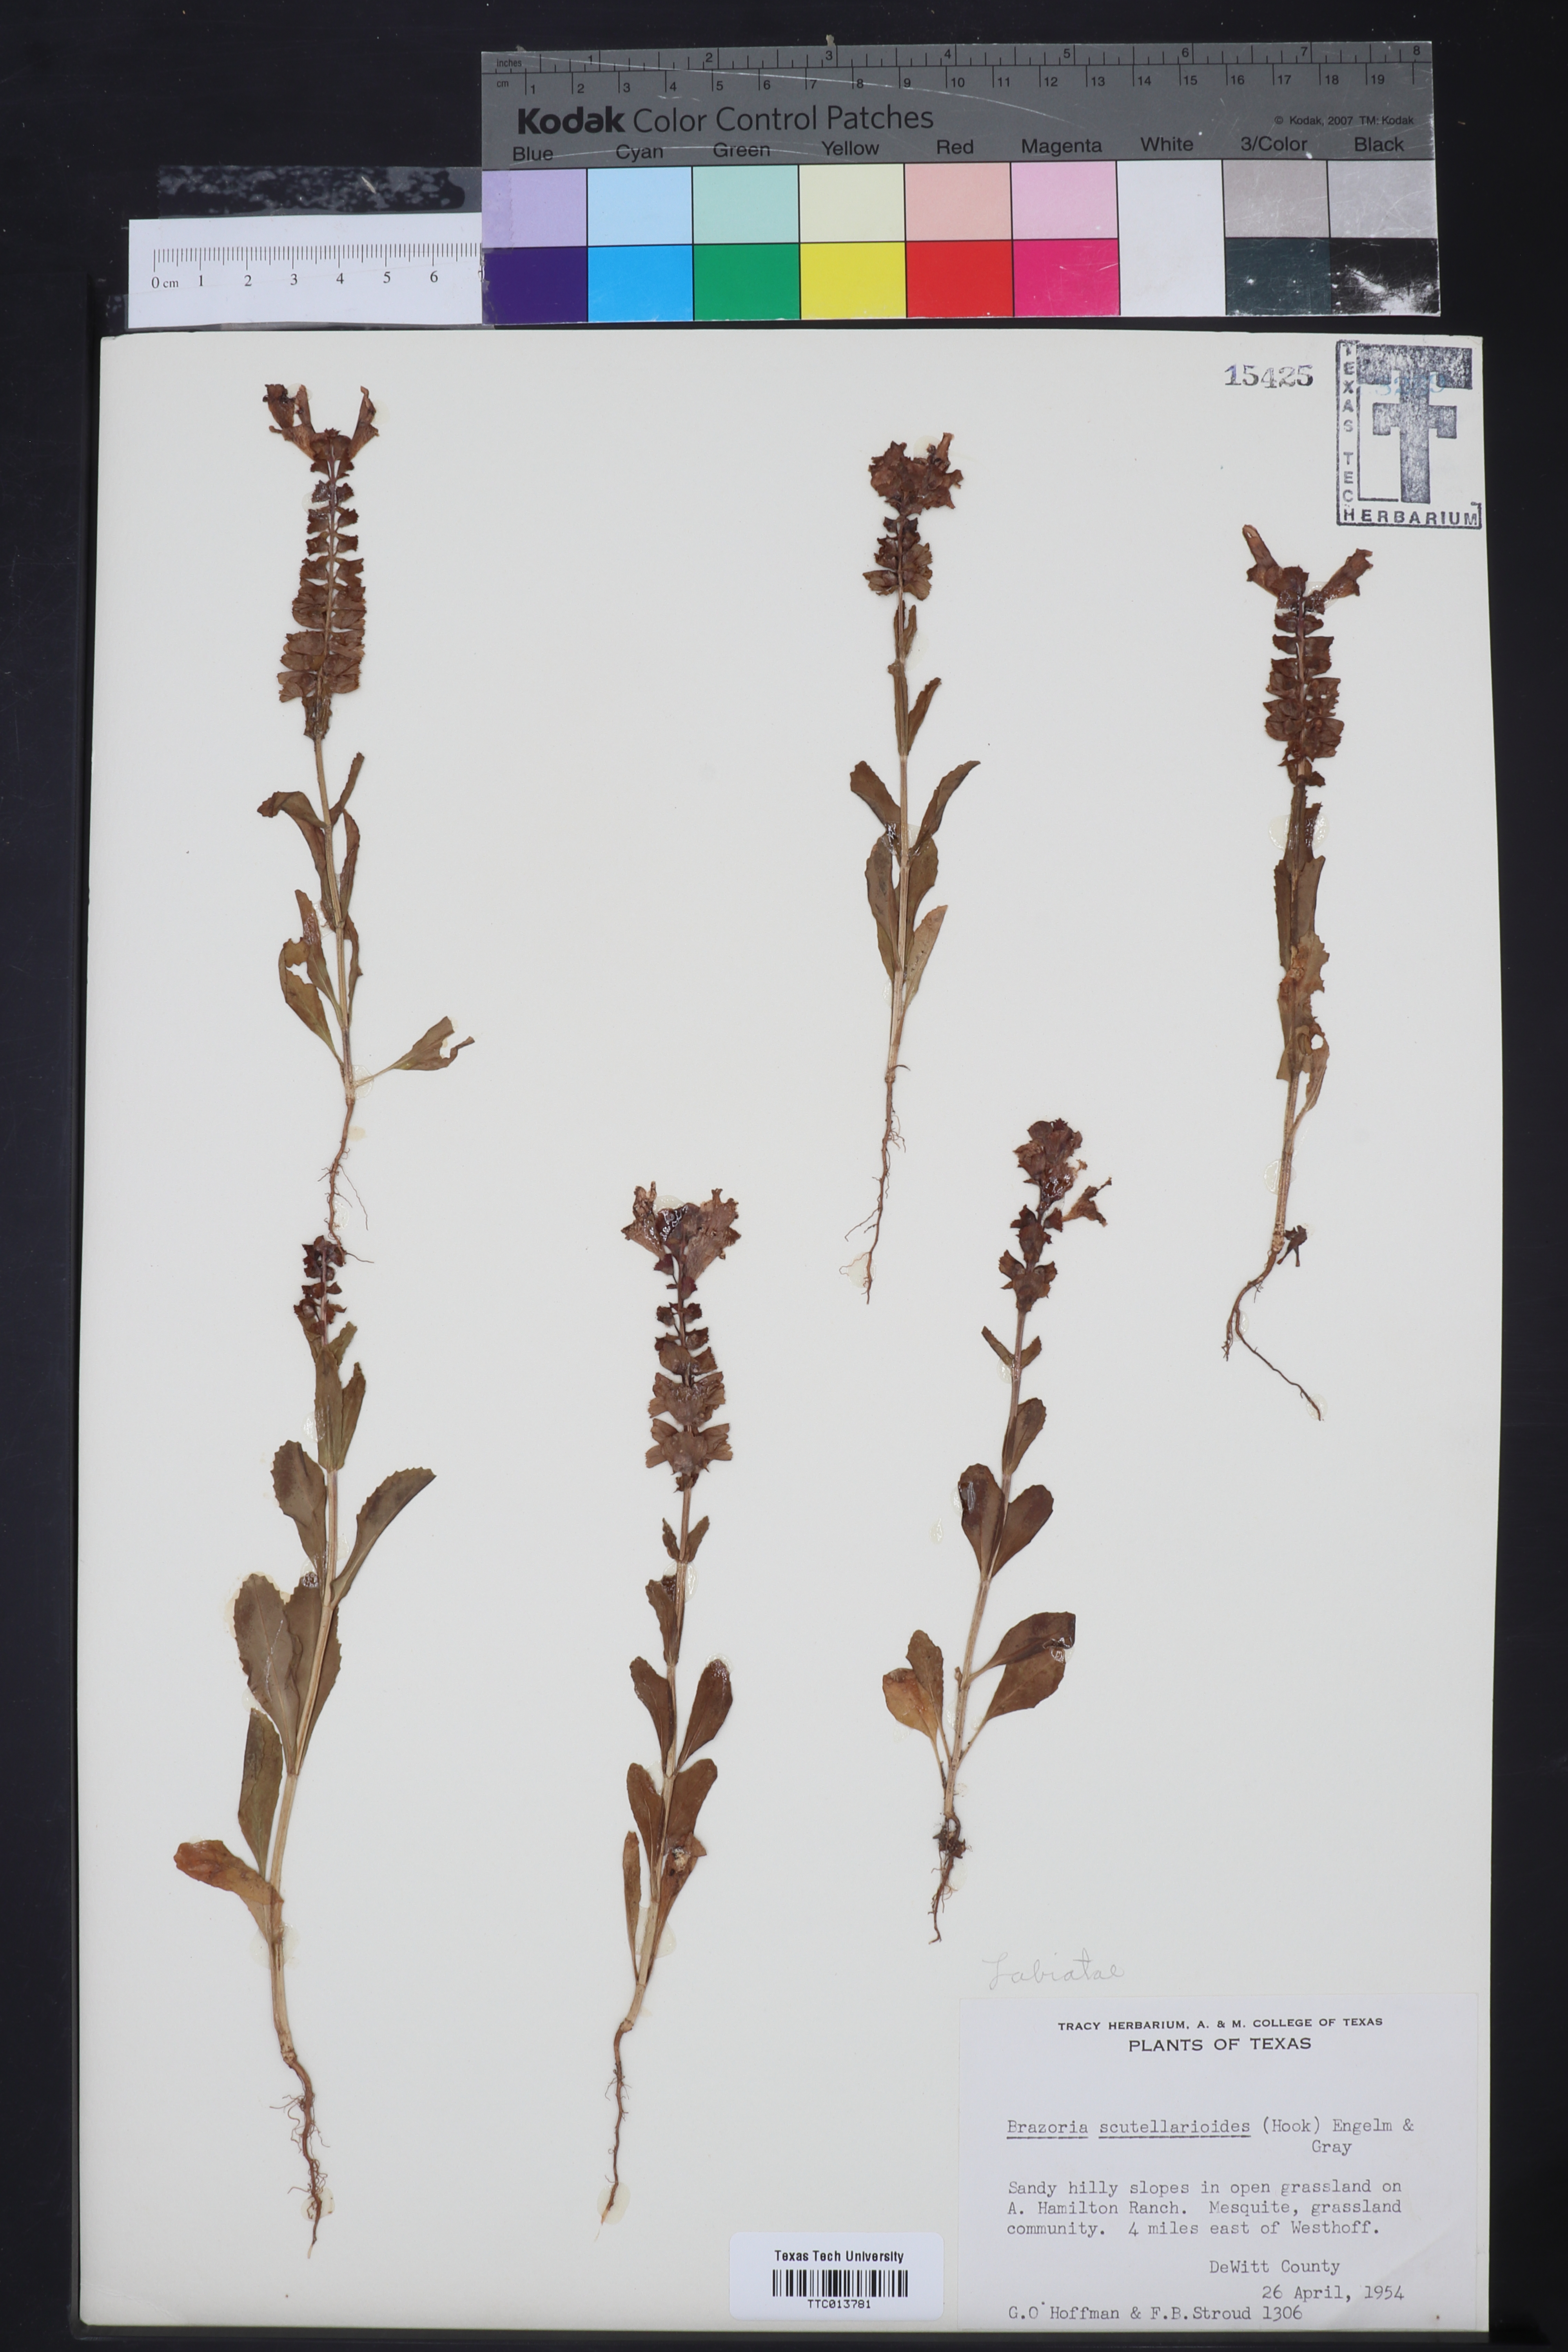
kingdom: Plantae
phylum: Tracheophyta
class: Magnoliopsida
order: Lamiales
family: Lamiaceae
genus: Warnockia
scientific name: Warnockia scutellarioides
